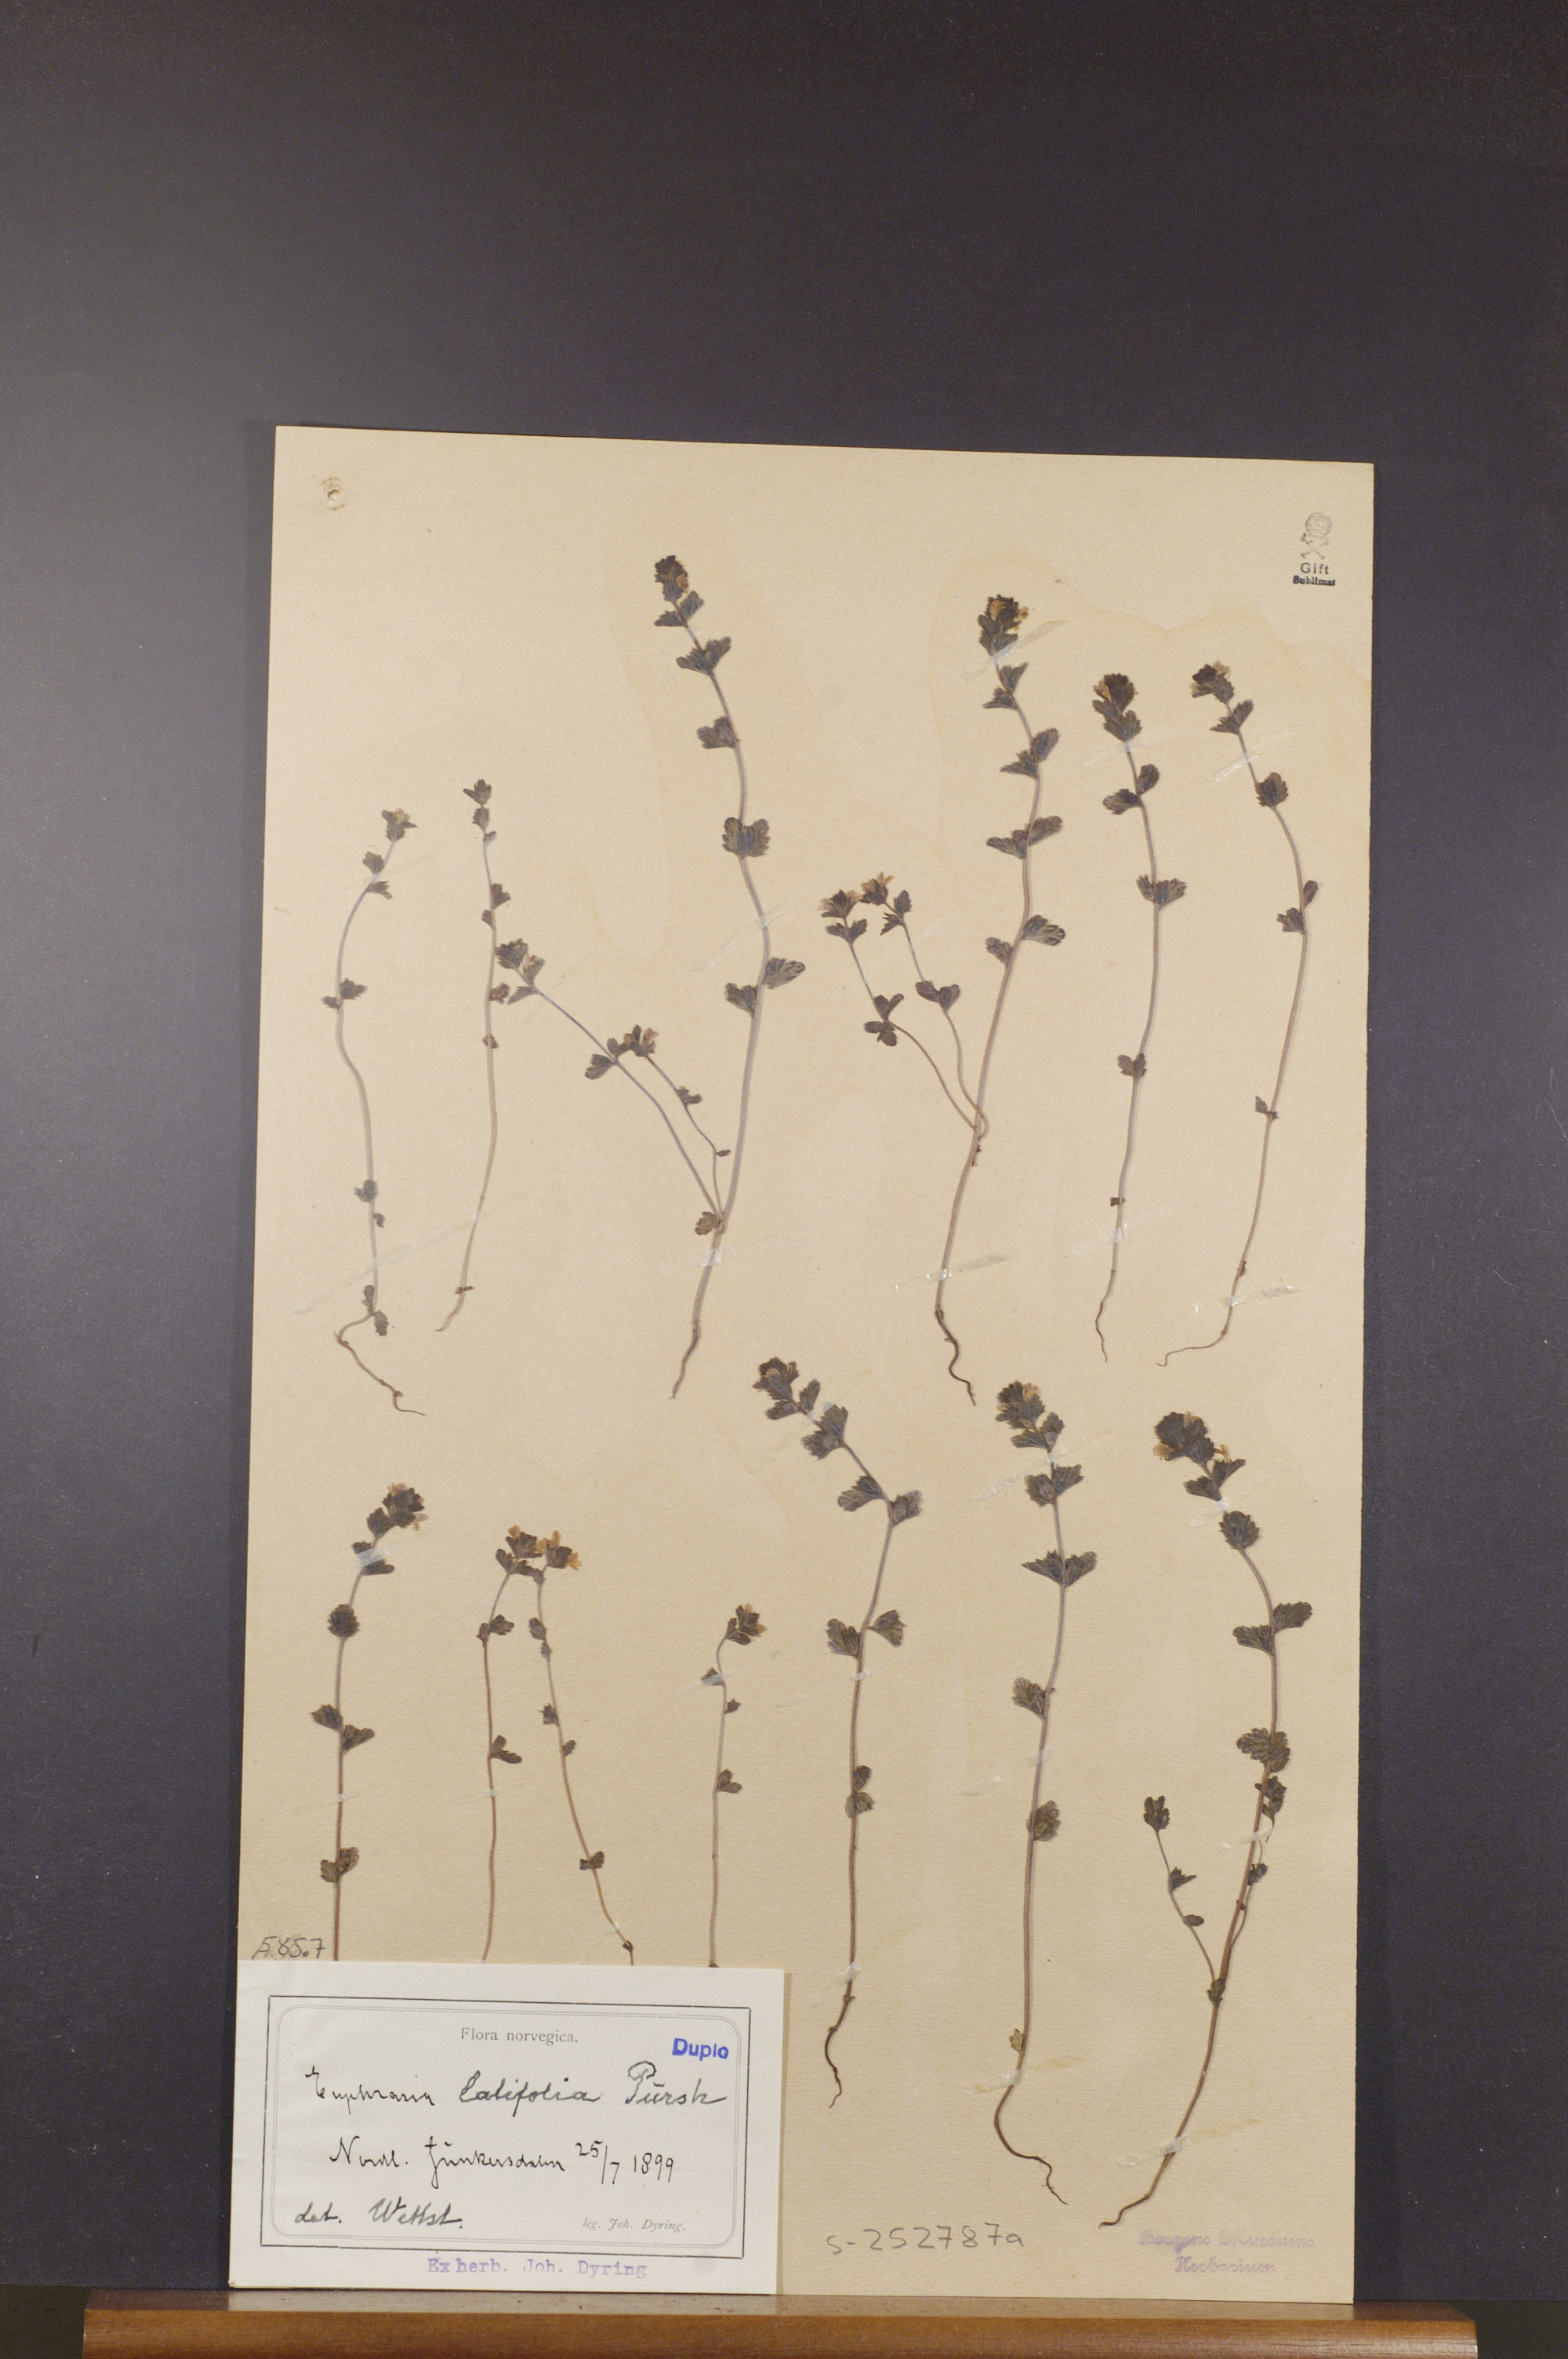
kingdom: Plantae
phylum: Tracheophyta
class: Magnoliopsida
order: Lamiales
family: Orobanchaceae
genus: Euphrasia
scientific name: Euphrasia wettsteinii
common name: Wettstein's eyebright
